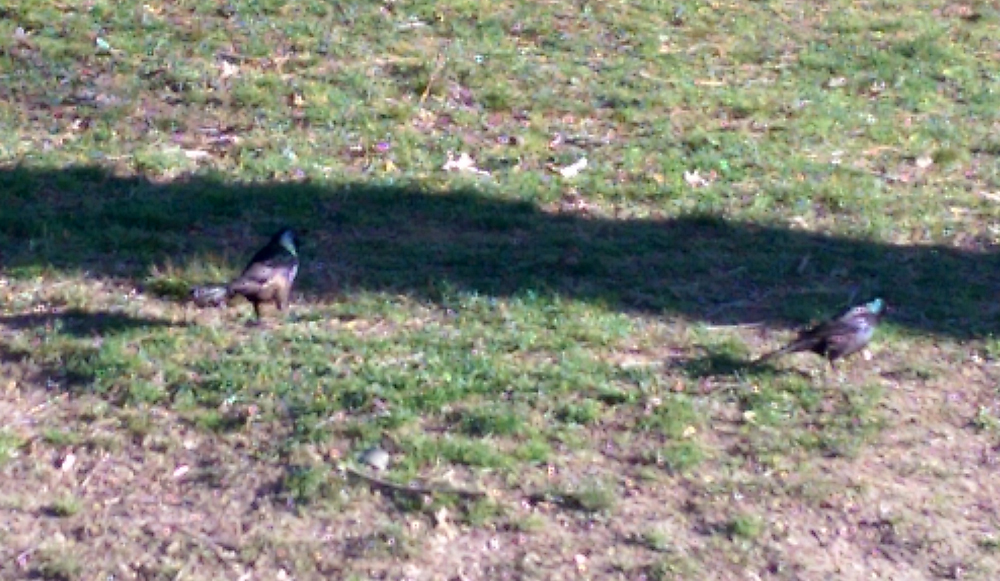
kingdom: Animalia
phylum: Chordata
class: Aves
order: Passeriformes
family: Icteridae
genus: Quiscalus
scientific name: Quiscalus quiscula
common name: Common grackle
